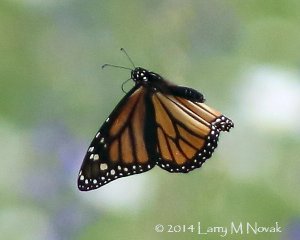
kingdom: Animalia
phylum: Arthropoda
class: Insecta
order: Lepidoptera
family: Nymphalidae
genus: Danaus
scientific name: Danaus plexippus
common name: Monarch
